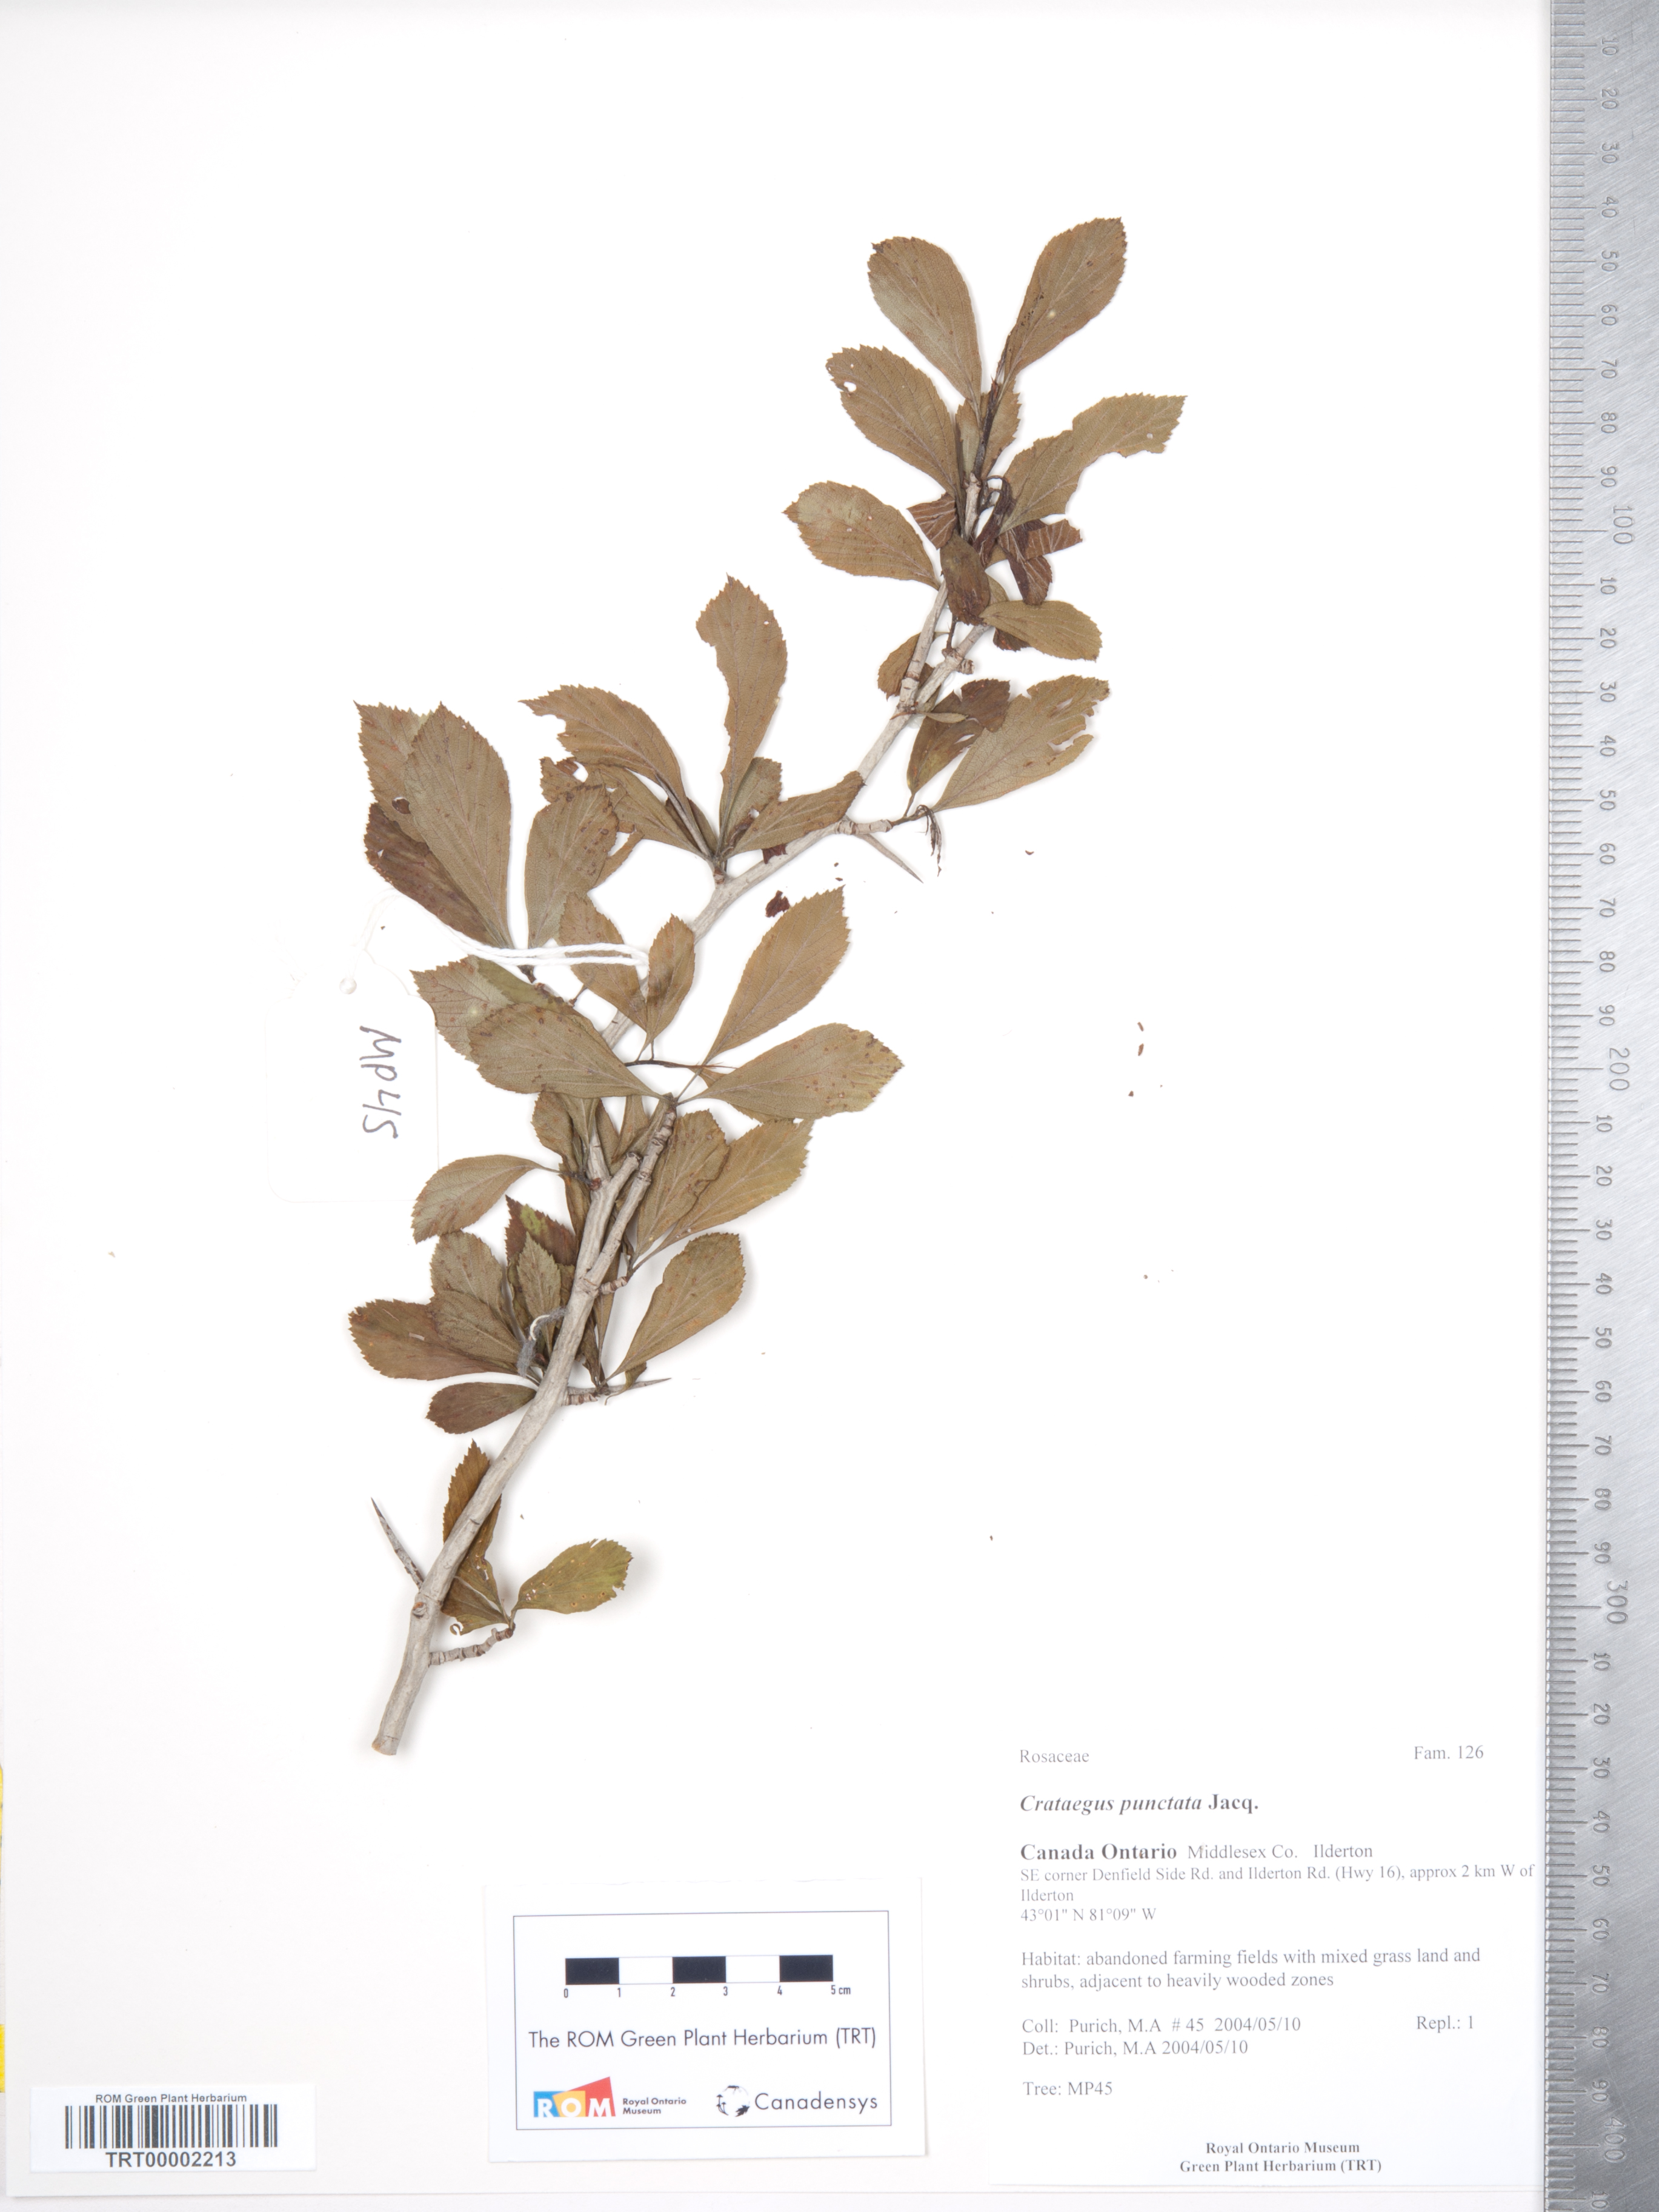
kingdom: Plantae
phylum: Tracheophyta
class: Magnoliopsida
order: Rosales
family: Rosaceae
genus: Crataegus
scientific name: Crataegus punctata
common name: Dotted hawthorn
